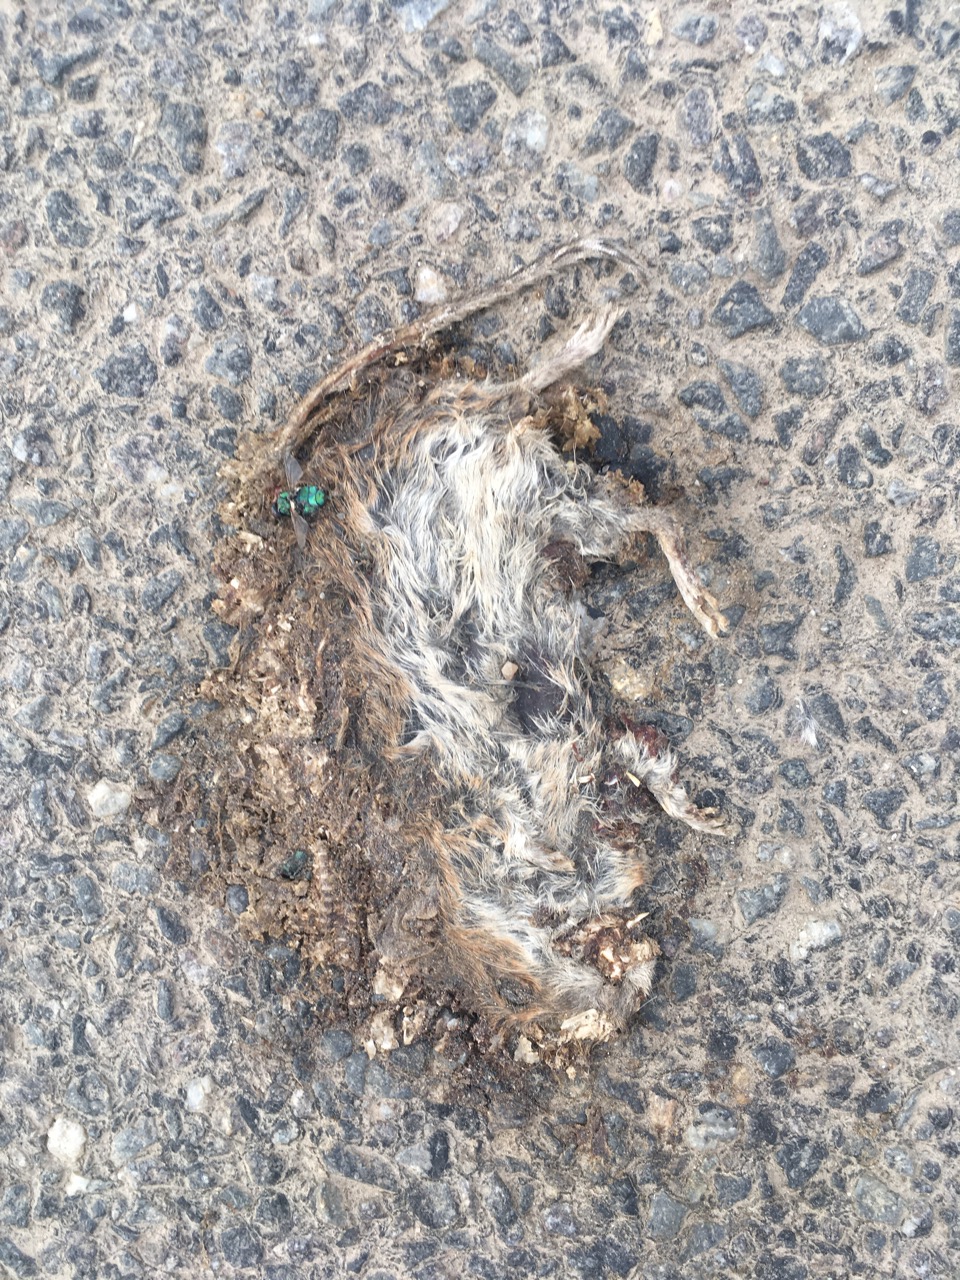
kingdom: Animalia
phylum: Chordata
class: Mammalia
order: Rodentia
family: Muridae
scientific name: Muridae
